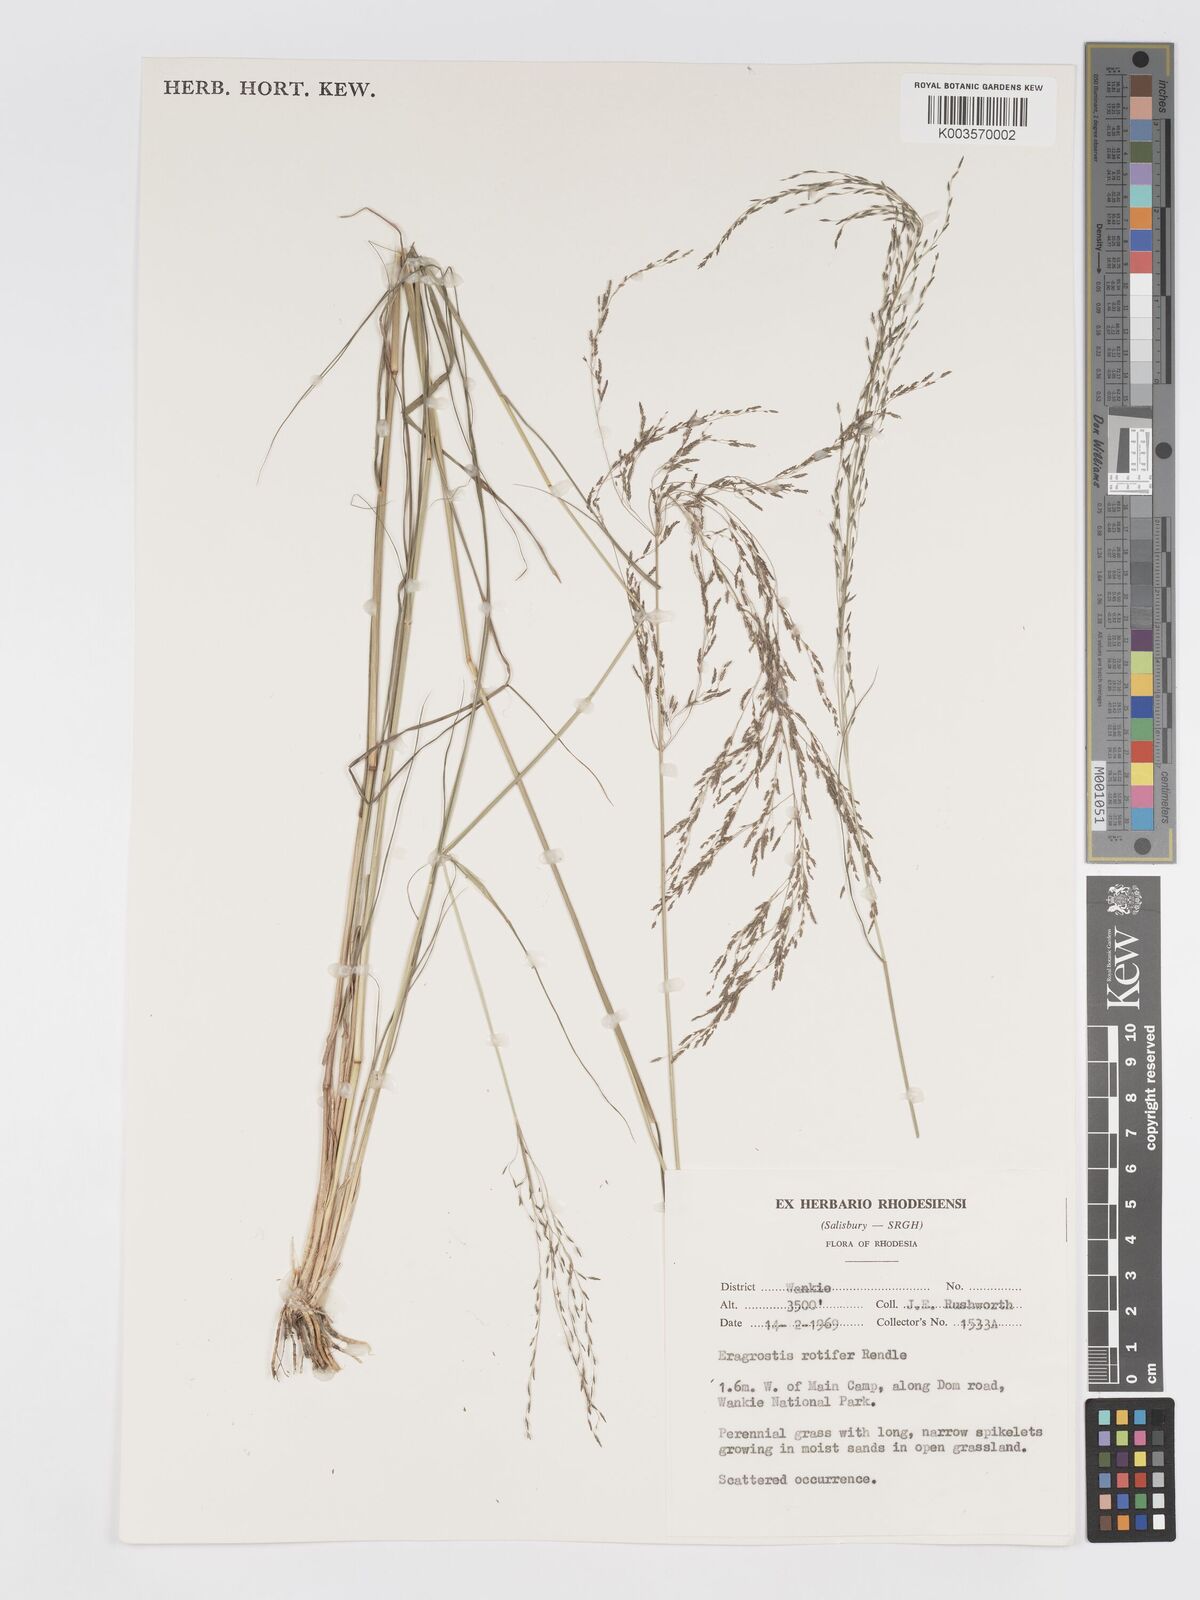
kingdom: Plantae
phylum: Tracheophyta
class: Liliopsida
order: Poales
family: Poaceae
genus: Eragrostis
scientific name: Eragrostis rotifer
